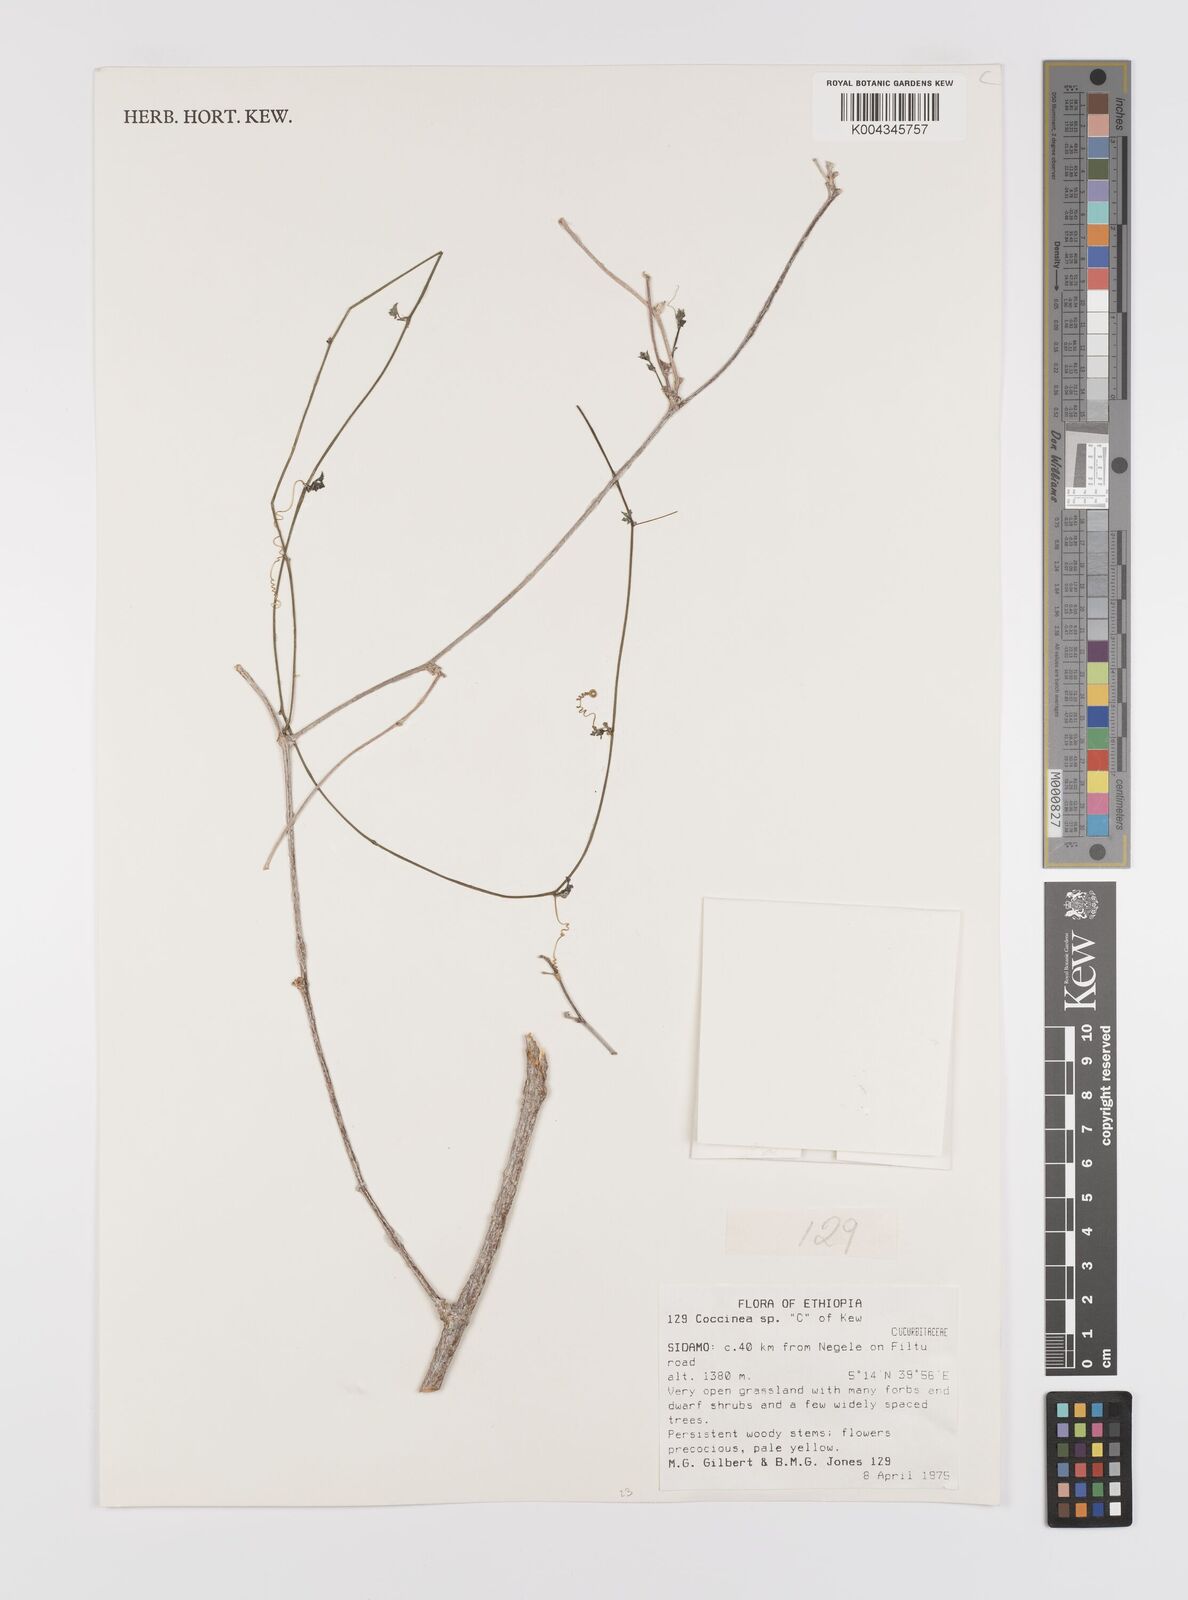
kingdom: Plantae
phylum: Tracheophyta
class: Magnoliopsida
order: Cucurbitales
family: Cucurbitaceae
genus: Coccinia
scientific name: Coccinia microphylla
